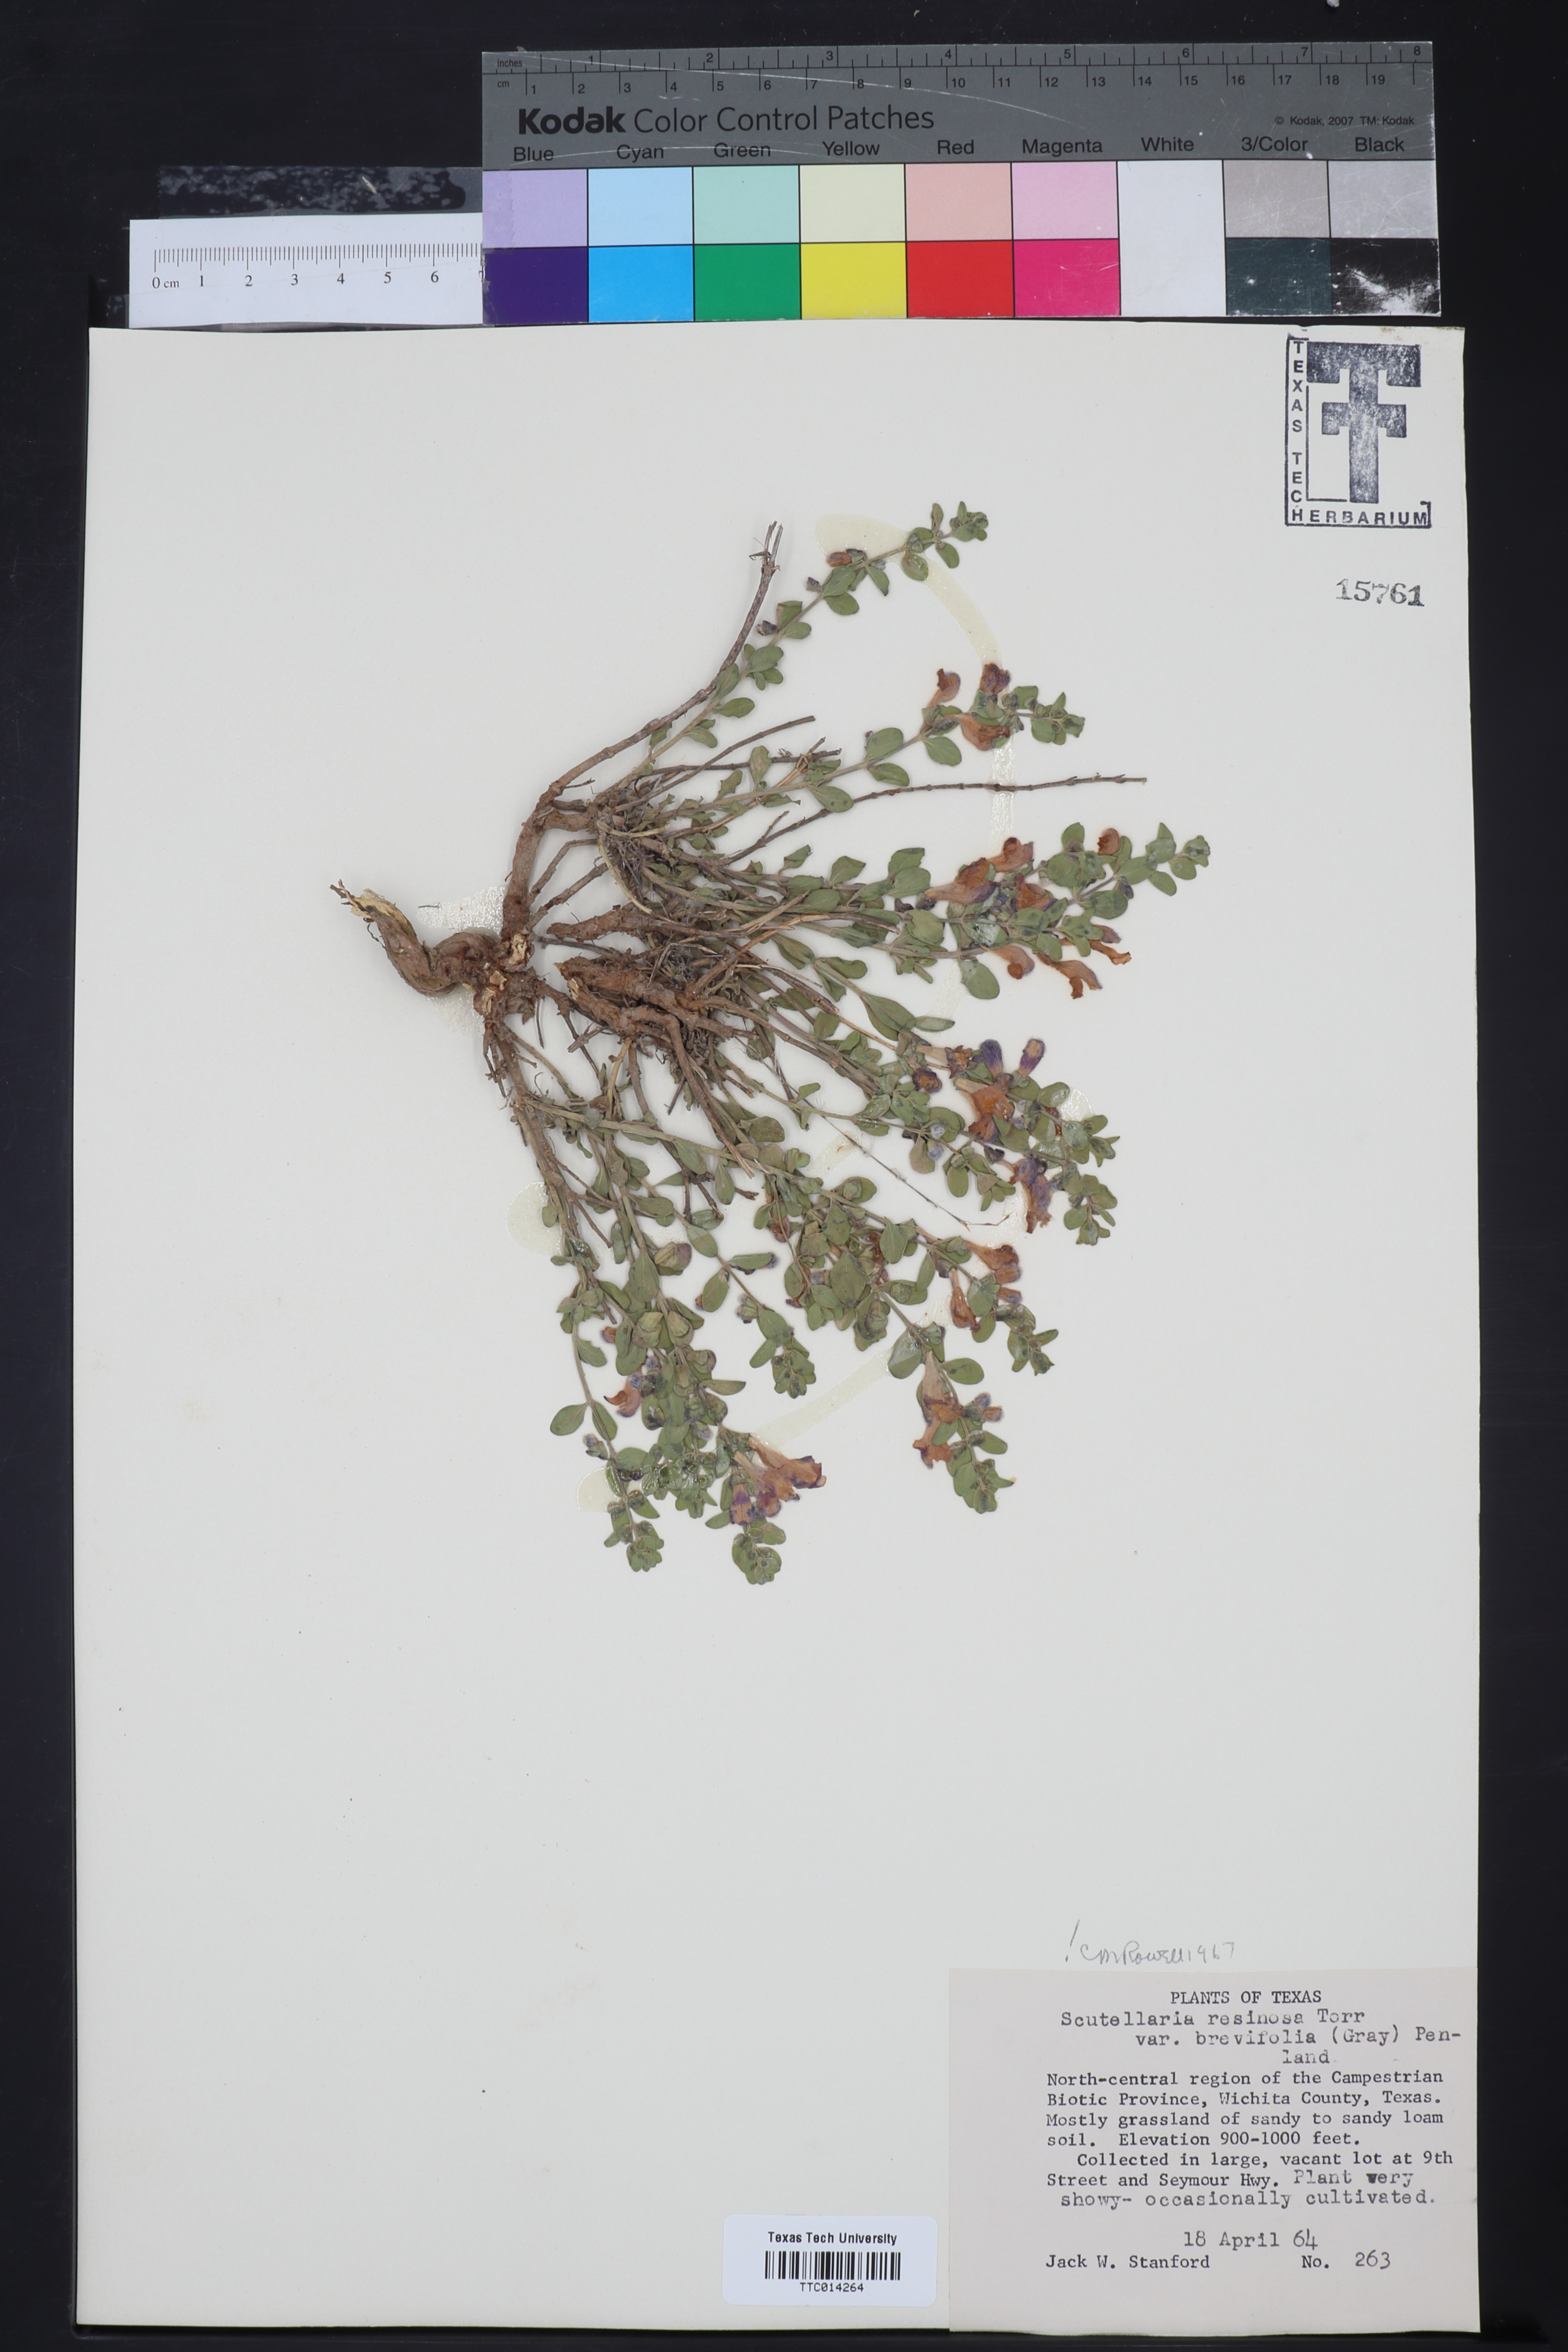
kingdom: Plantae
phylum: Tracheophyta
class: Magnoliopsida
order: Lamiales
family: Lamiaceae
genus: Scutellaria
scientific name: Scutellaria resinosa
